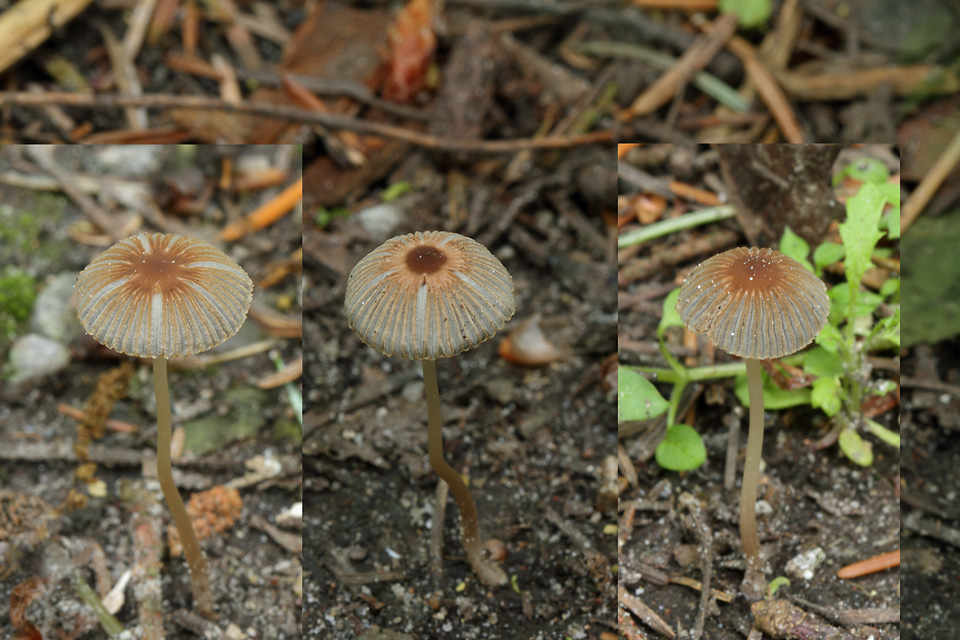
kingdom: Fungi
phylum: Basidiomycota
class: Agaricomycetes
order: Agaricales
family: Psathyrellaceae
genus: Parasola
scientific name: Parasola kuehneri
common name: skygge-hjulhat
